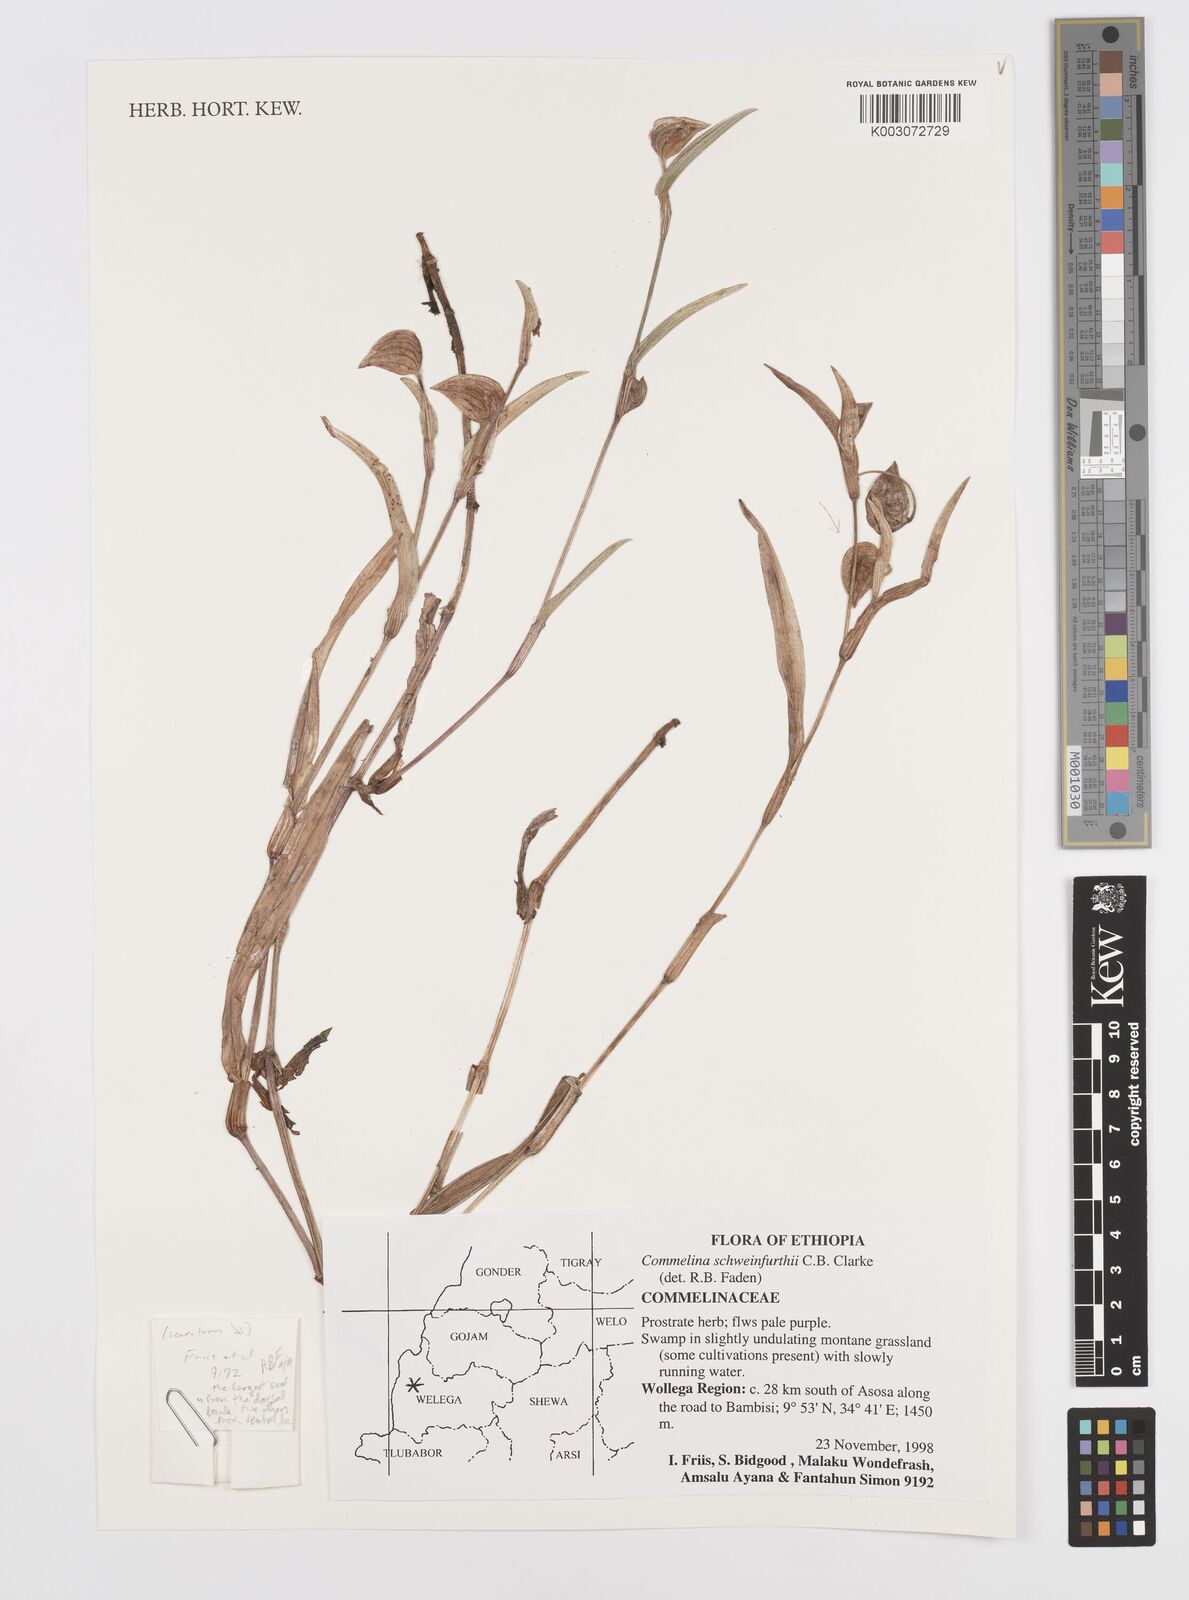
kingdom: Plantae
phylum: Tracheophyta
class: Liliopsida
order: Commelinales
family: Commelinaceae
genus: Commelina
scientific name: Commelina schweinfurthii
